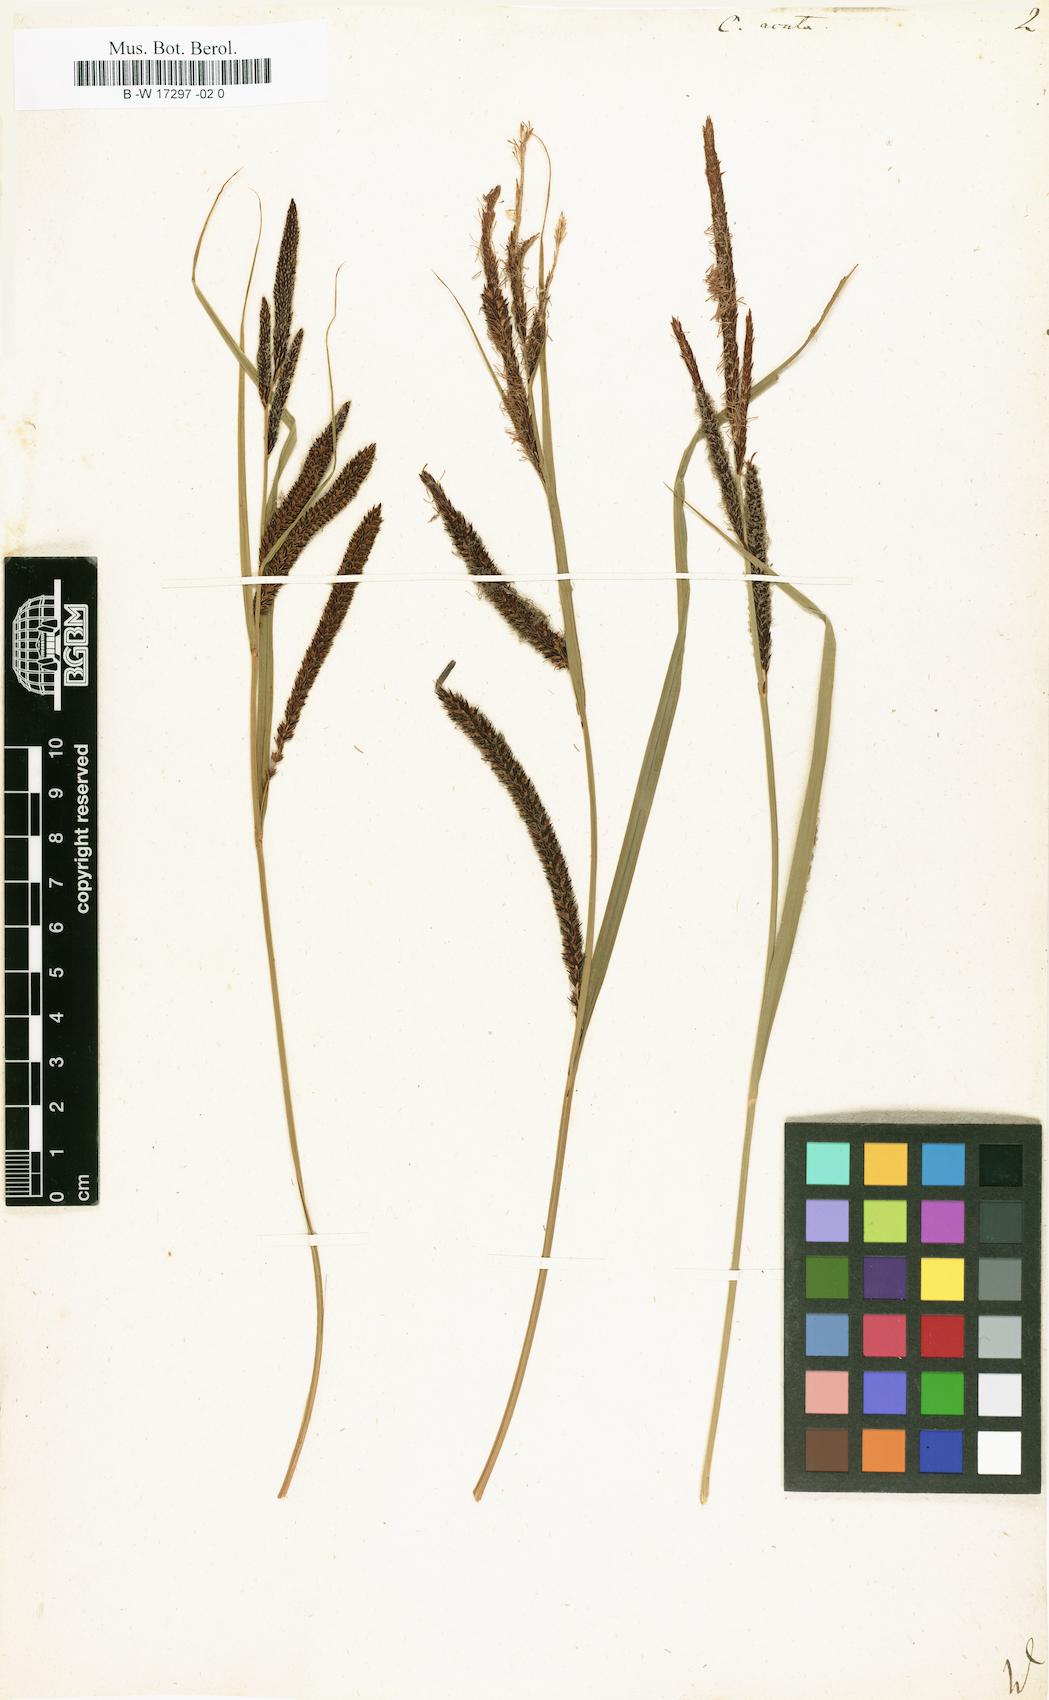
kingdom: Plantae
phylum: Tracheophyta
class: Liliopsida
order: Poales
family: Cyperaceae
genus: Carex
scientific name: Carex acuta
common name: Slender tufted-sedge
